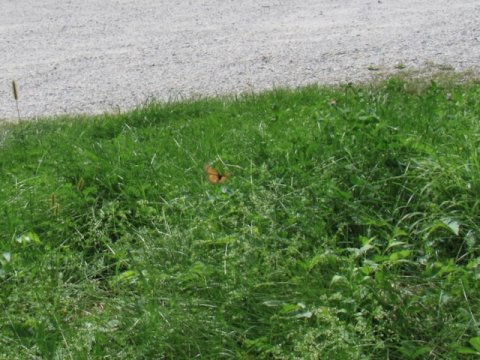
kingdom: Animalia
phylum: Arthropoda
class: Insecta
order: Lepidoptera
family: Nymphalidae
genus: Danaus
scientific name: Danaus plexippus
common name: Monarch
